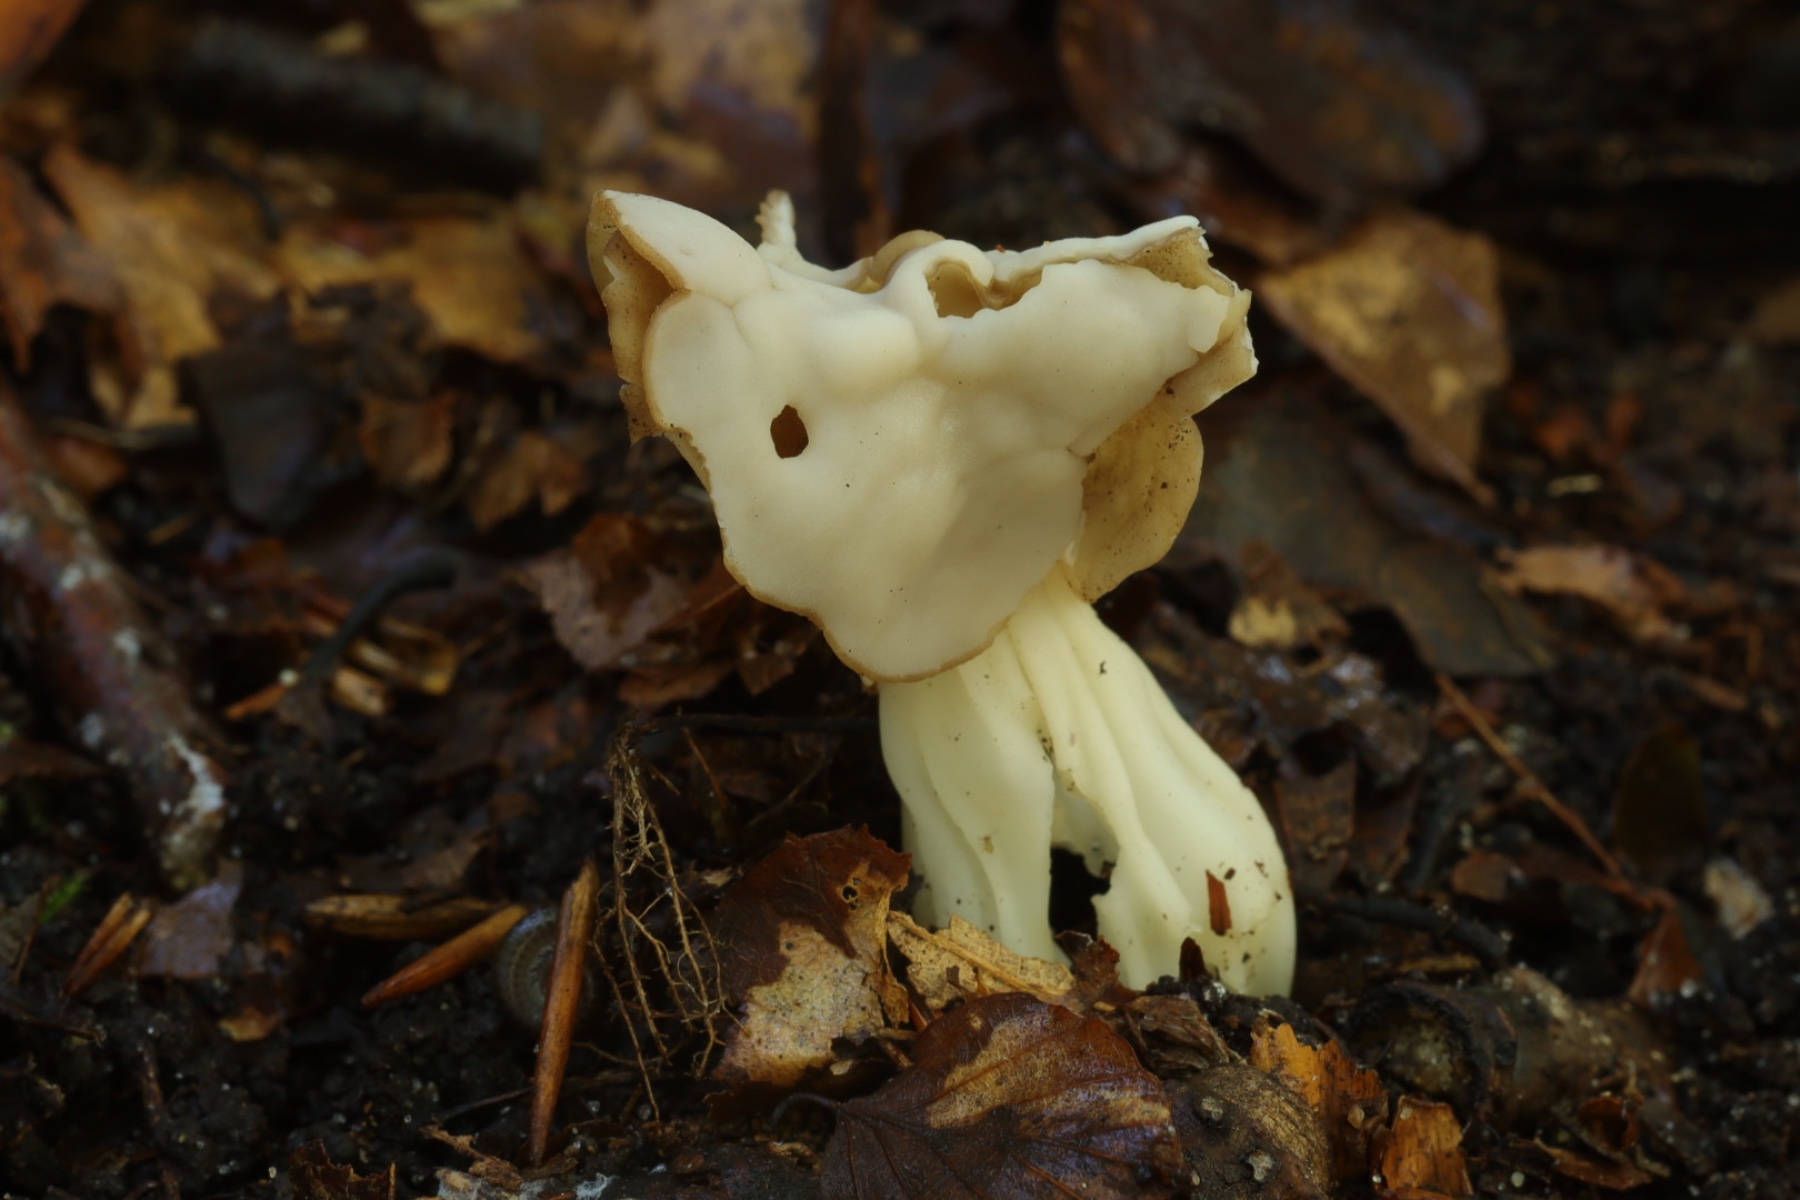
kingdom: Fungi
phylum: Ascomycota
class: Pezizomycetes
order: Pezizales
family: Helvellaceae
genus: Helvella
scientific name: Helvella crispa
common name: kruset foldhat
